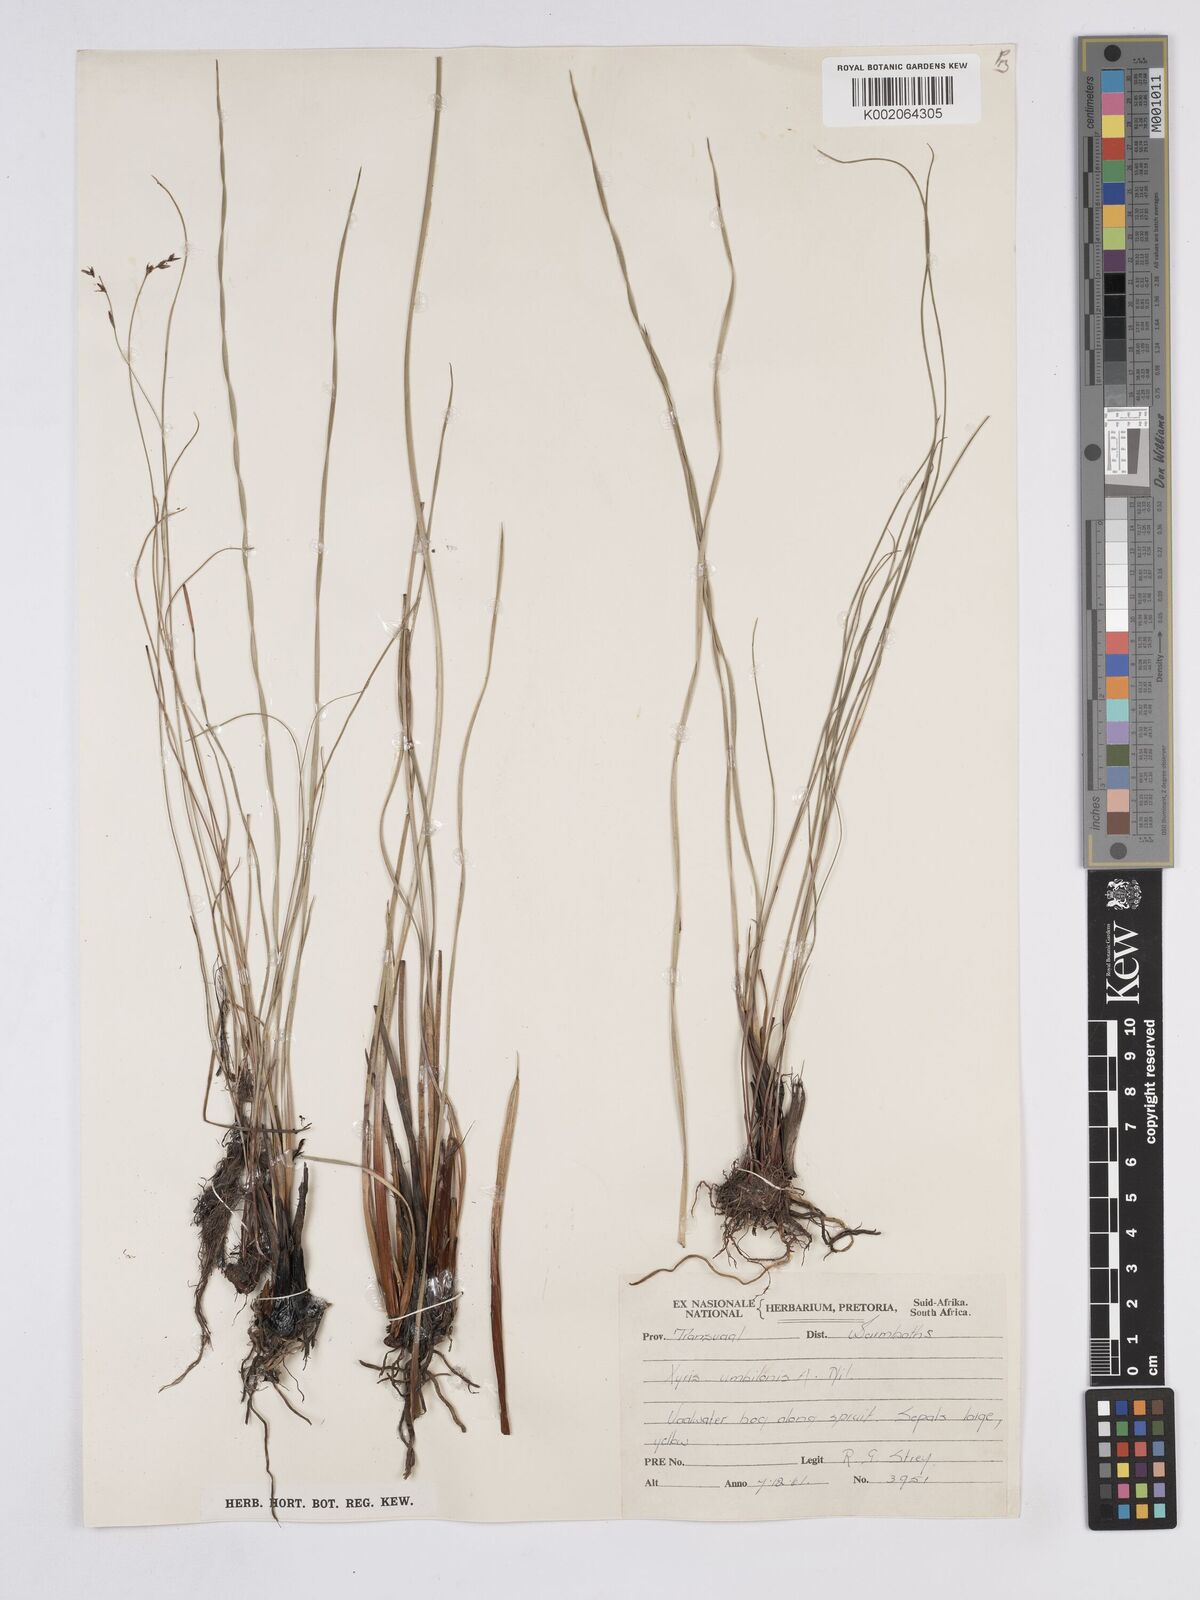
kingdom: Plantae
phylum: Tracheophyta
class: Liliopsida
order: Poales
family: Xyridaceae
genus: Xyris
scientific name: Xyris congensis
